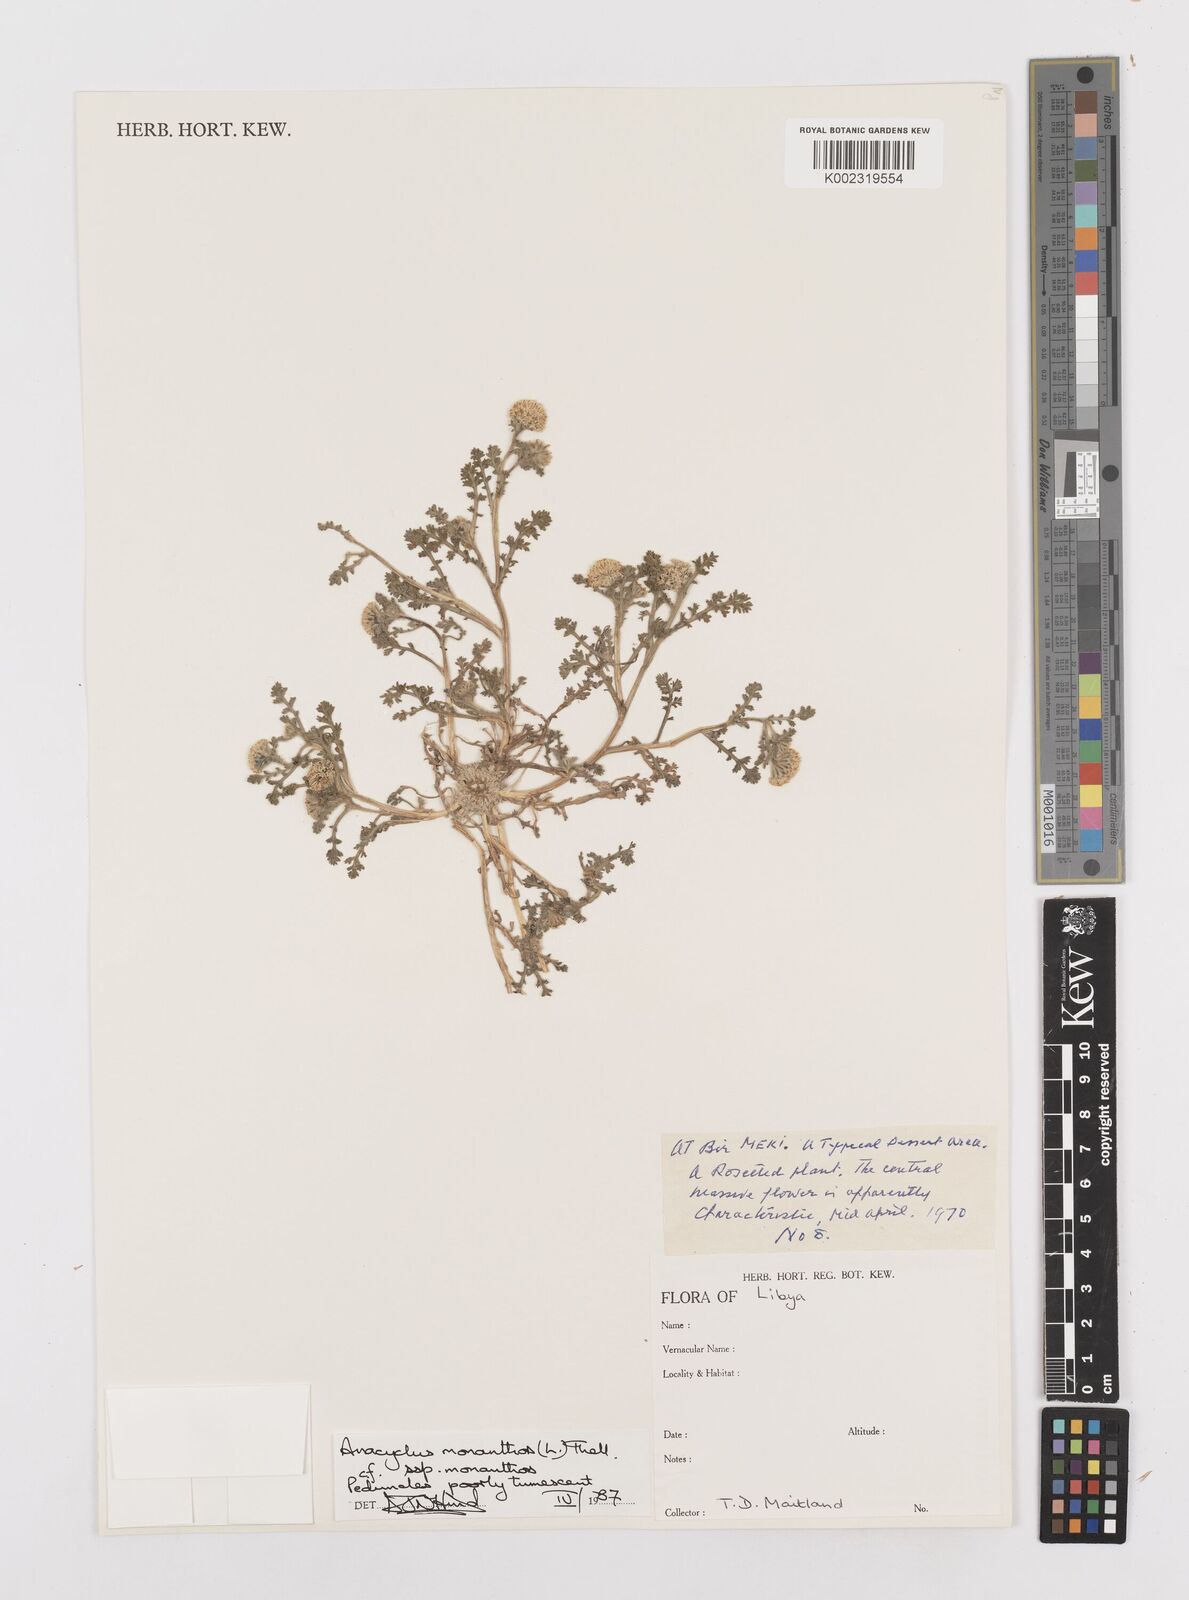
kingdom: Plantae
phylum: Tracheophyta
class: Magnoliopsida
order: Asterales
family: Asteraceae
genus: Anacyclus
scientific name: Anacyclus monanthos
